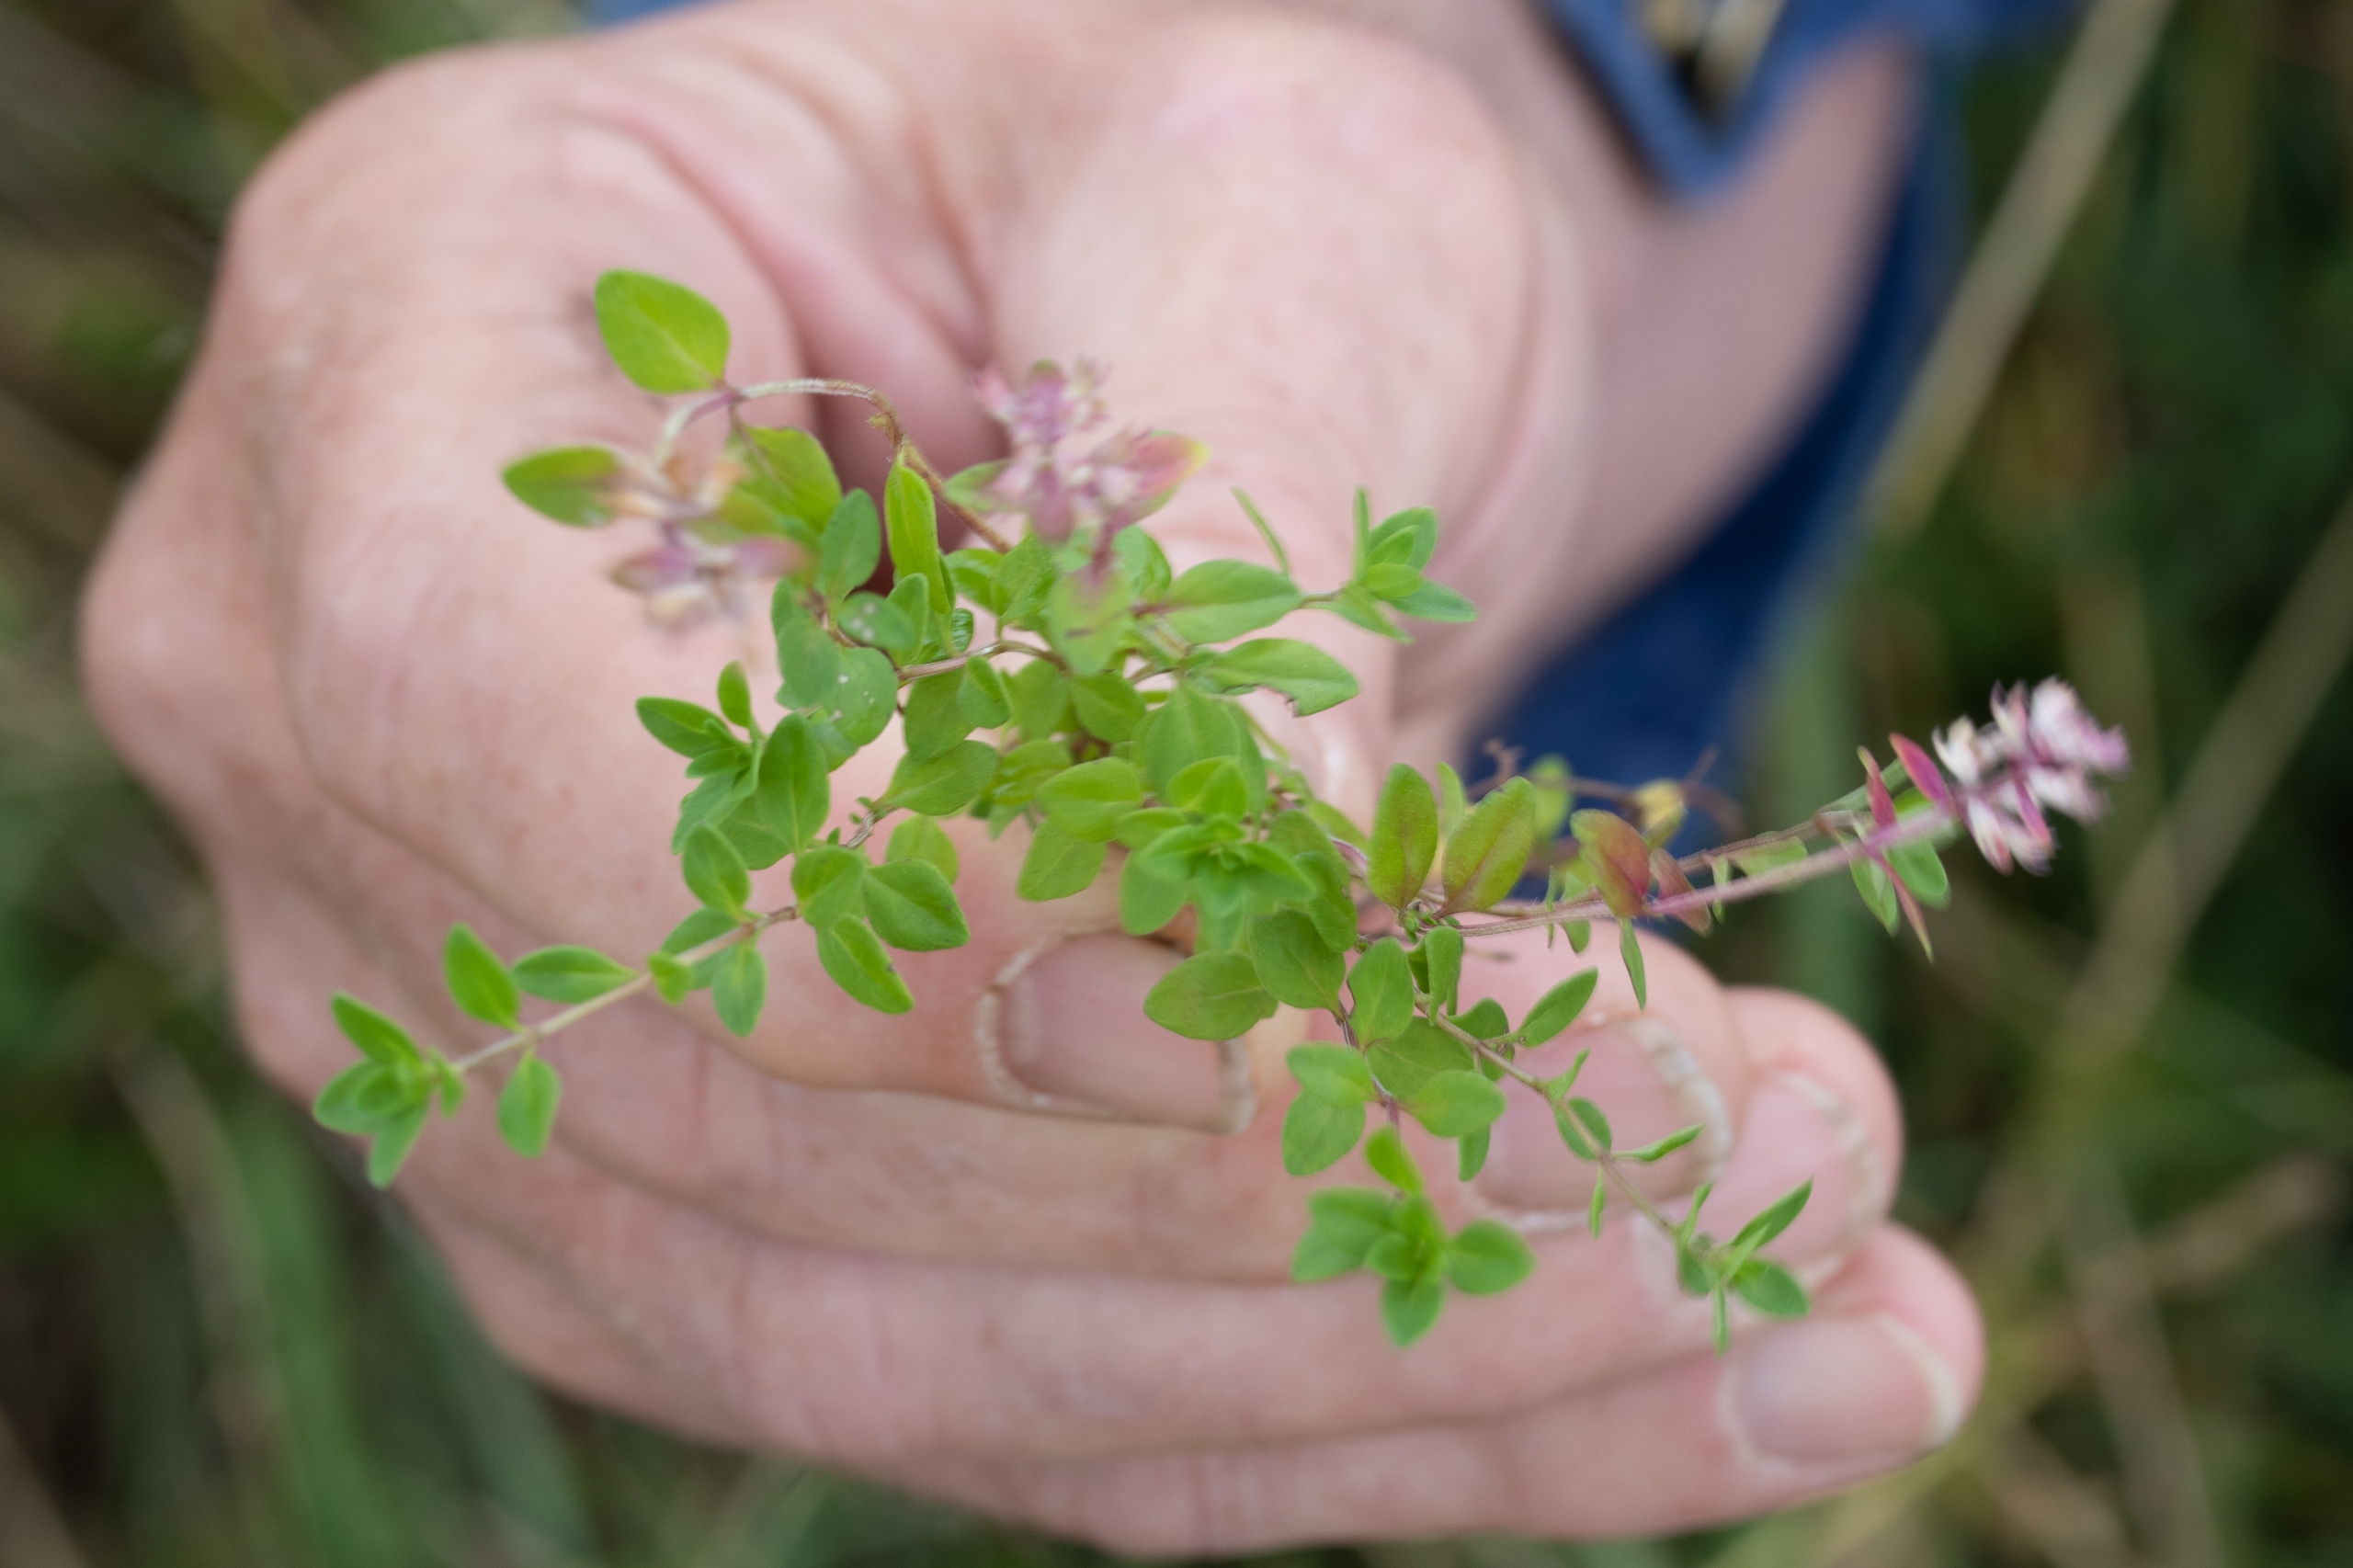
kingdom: Plantae
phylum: Tracheophyta
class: Magnoliopsida
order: Lamiales
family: Lamiaceae
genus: Thymus
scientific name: Thymus pulegioides
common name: Bredbladet timian
